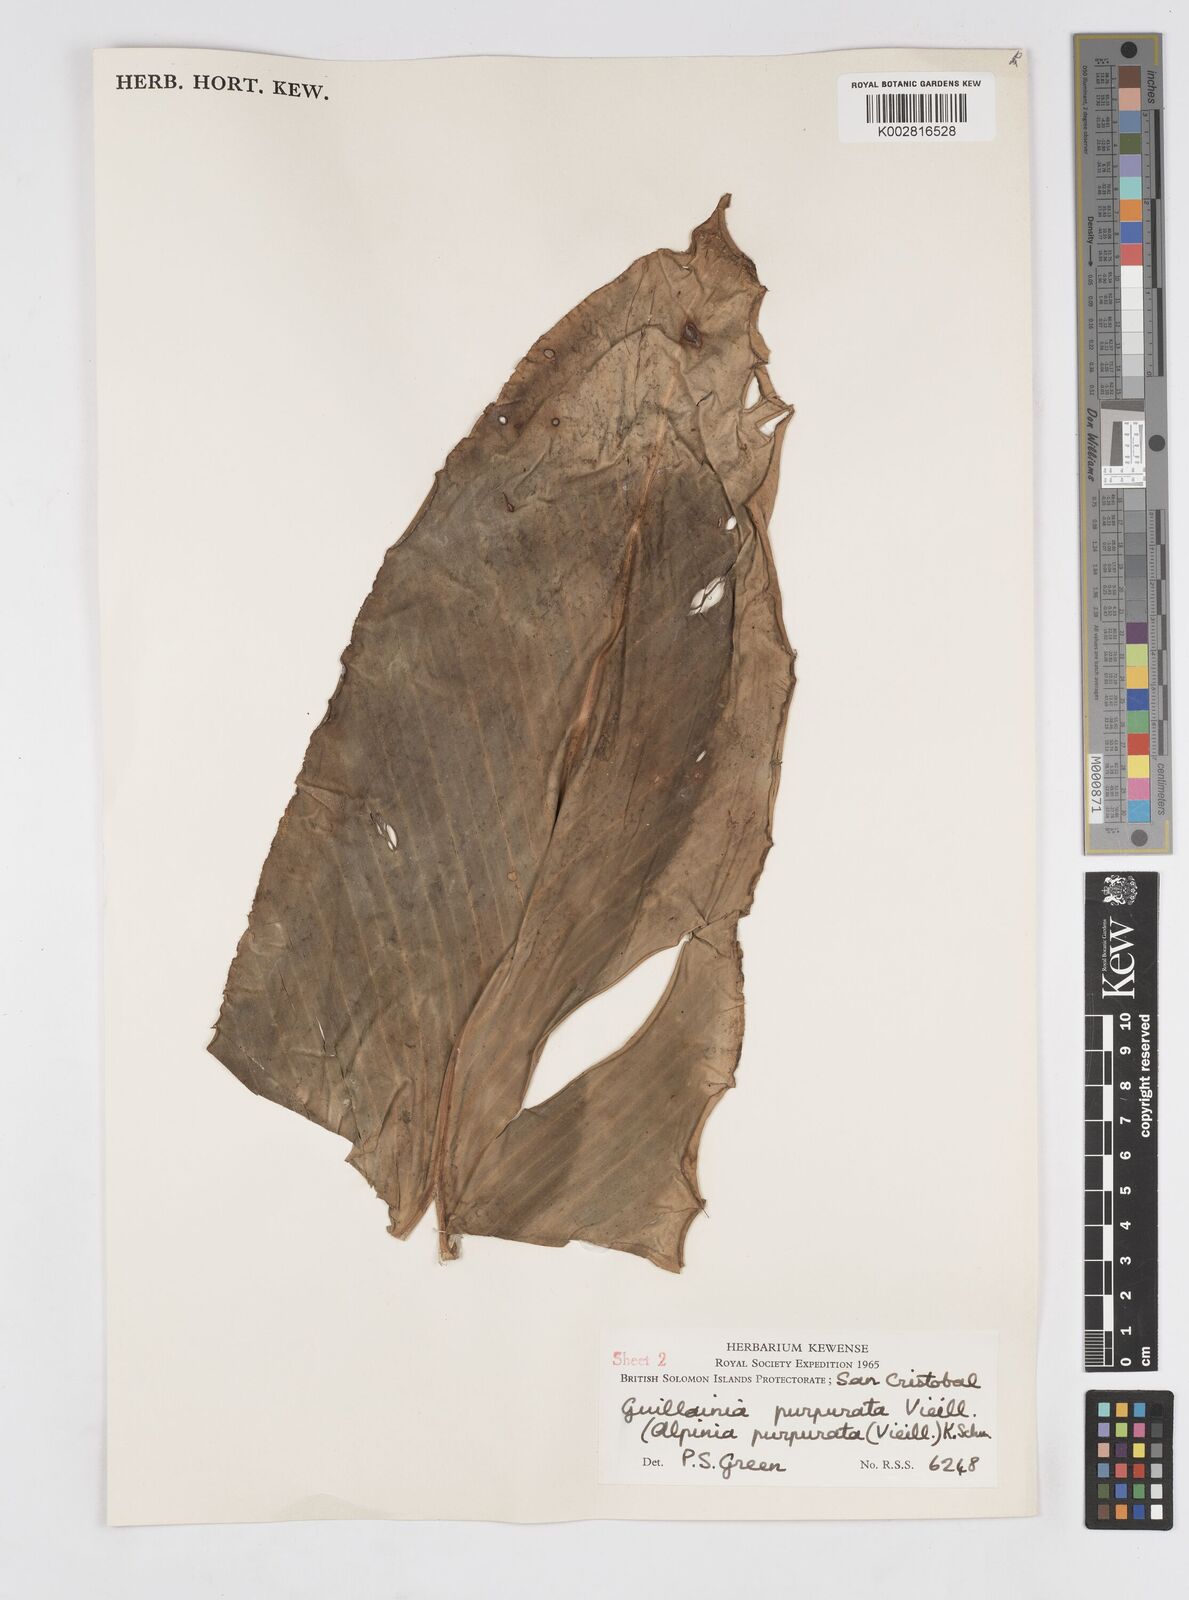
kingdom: Plantae
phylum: Tracheophyta
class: Liliopsida
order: Zingiberales
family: Zingiberaceae
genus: Alpinia
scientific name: Alpinia purpurata
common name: Red ginger
